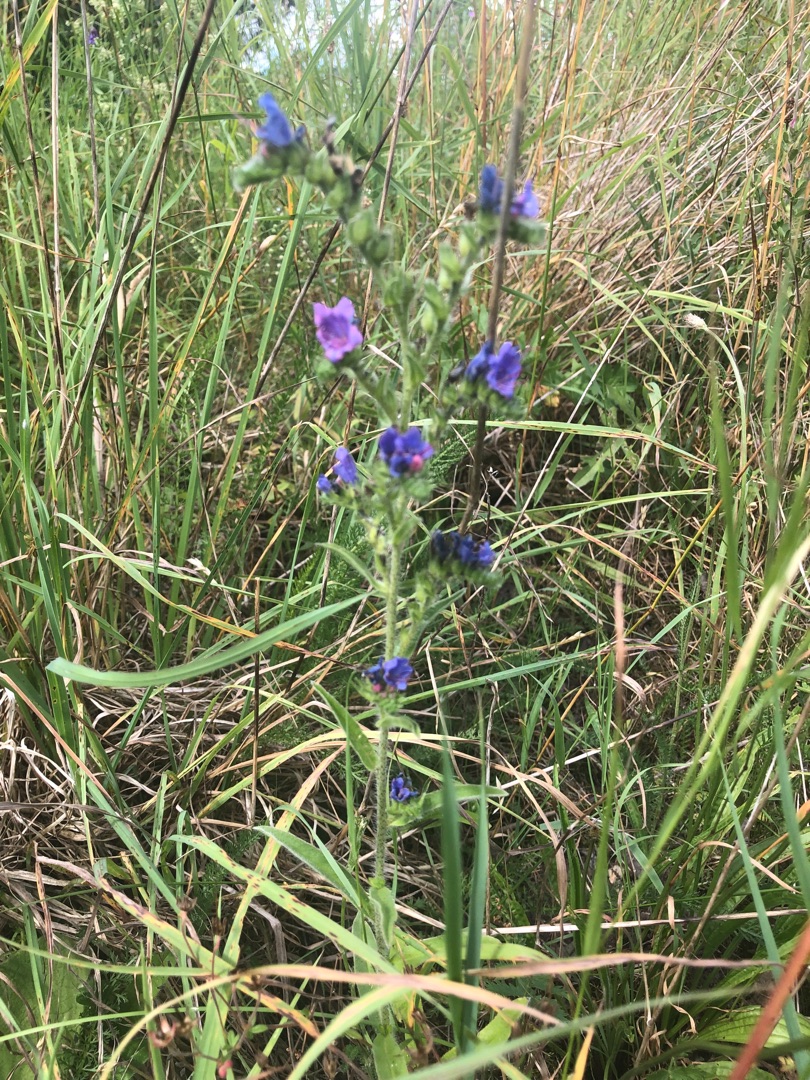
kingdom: Plantae
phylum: Tracheophyta
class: Magnoliopsida
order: Boraginales
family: Boraginaceae
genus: Echium
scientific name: Echium vulgare
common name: Slangehoved
